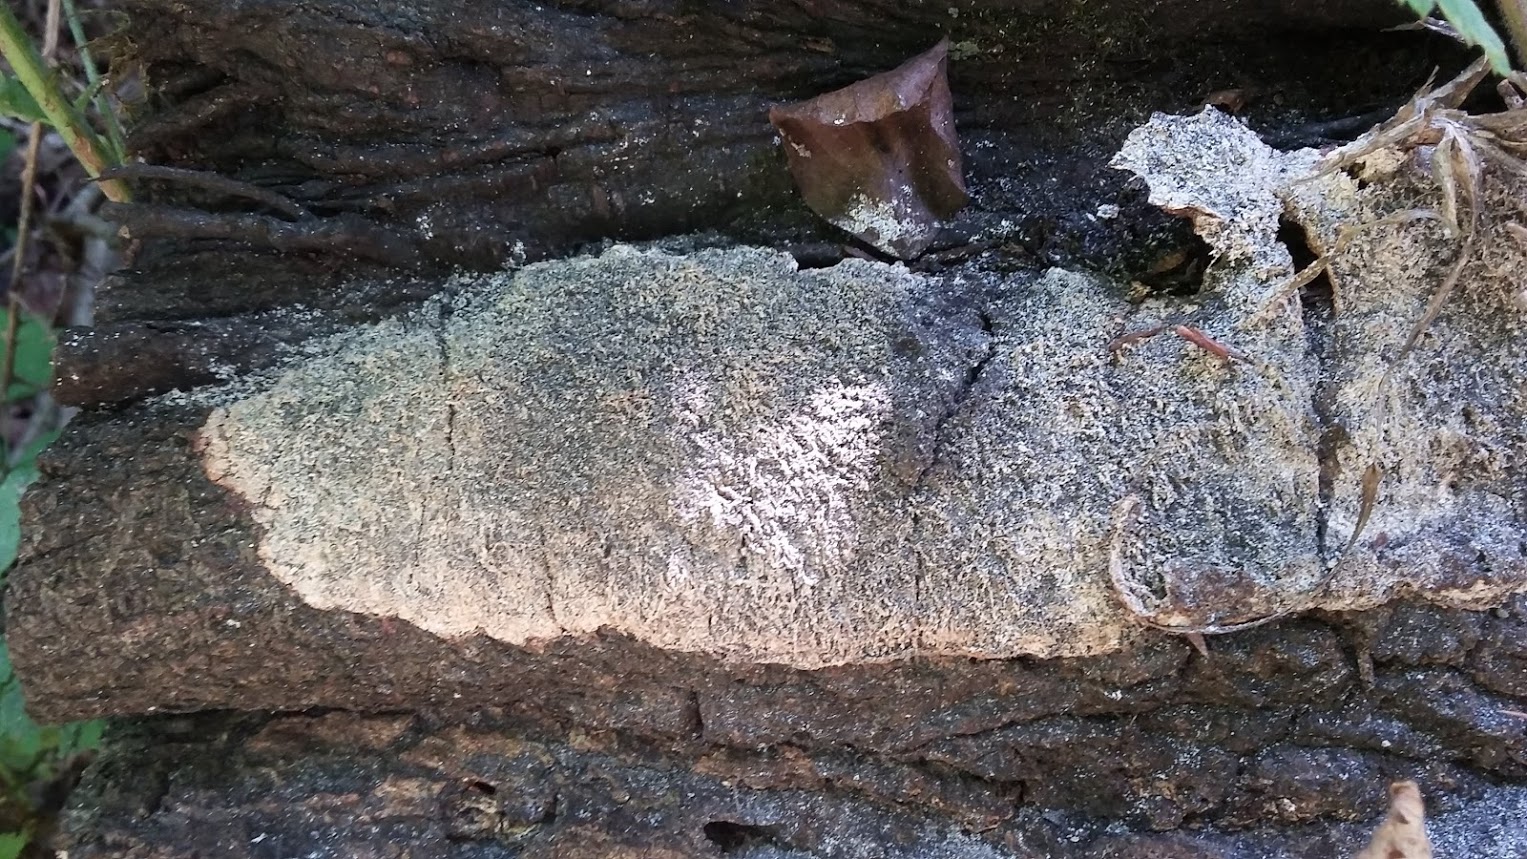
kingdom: Protozoa
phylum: Mycetozoa
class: Myxomycetes
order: Physarales
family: Physaraceae
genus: Fuligo
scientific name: Fuligo septica
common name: gul troldsmør
